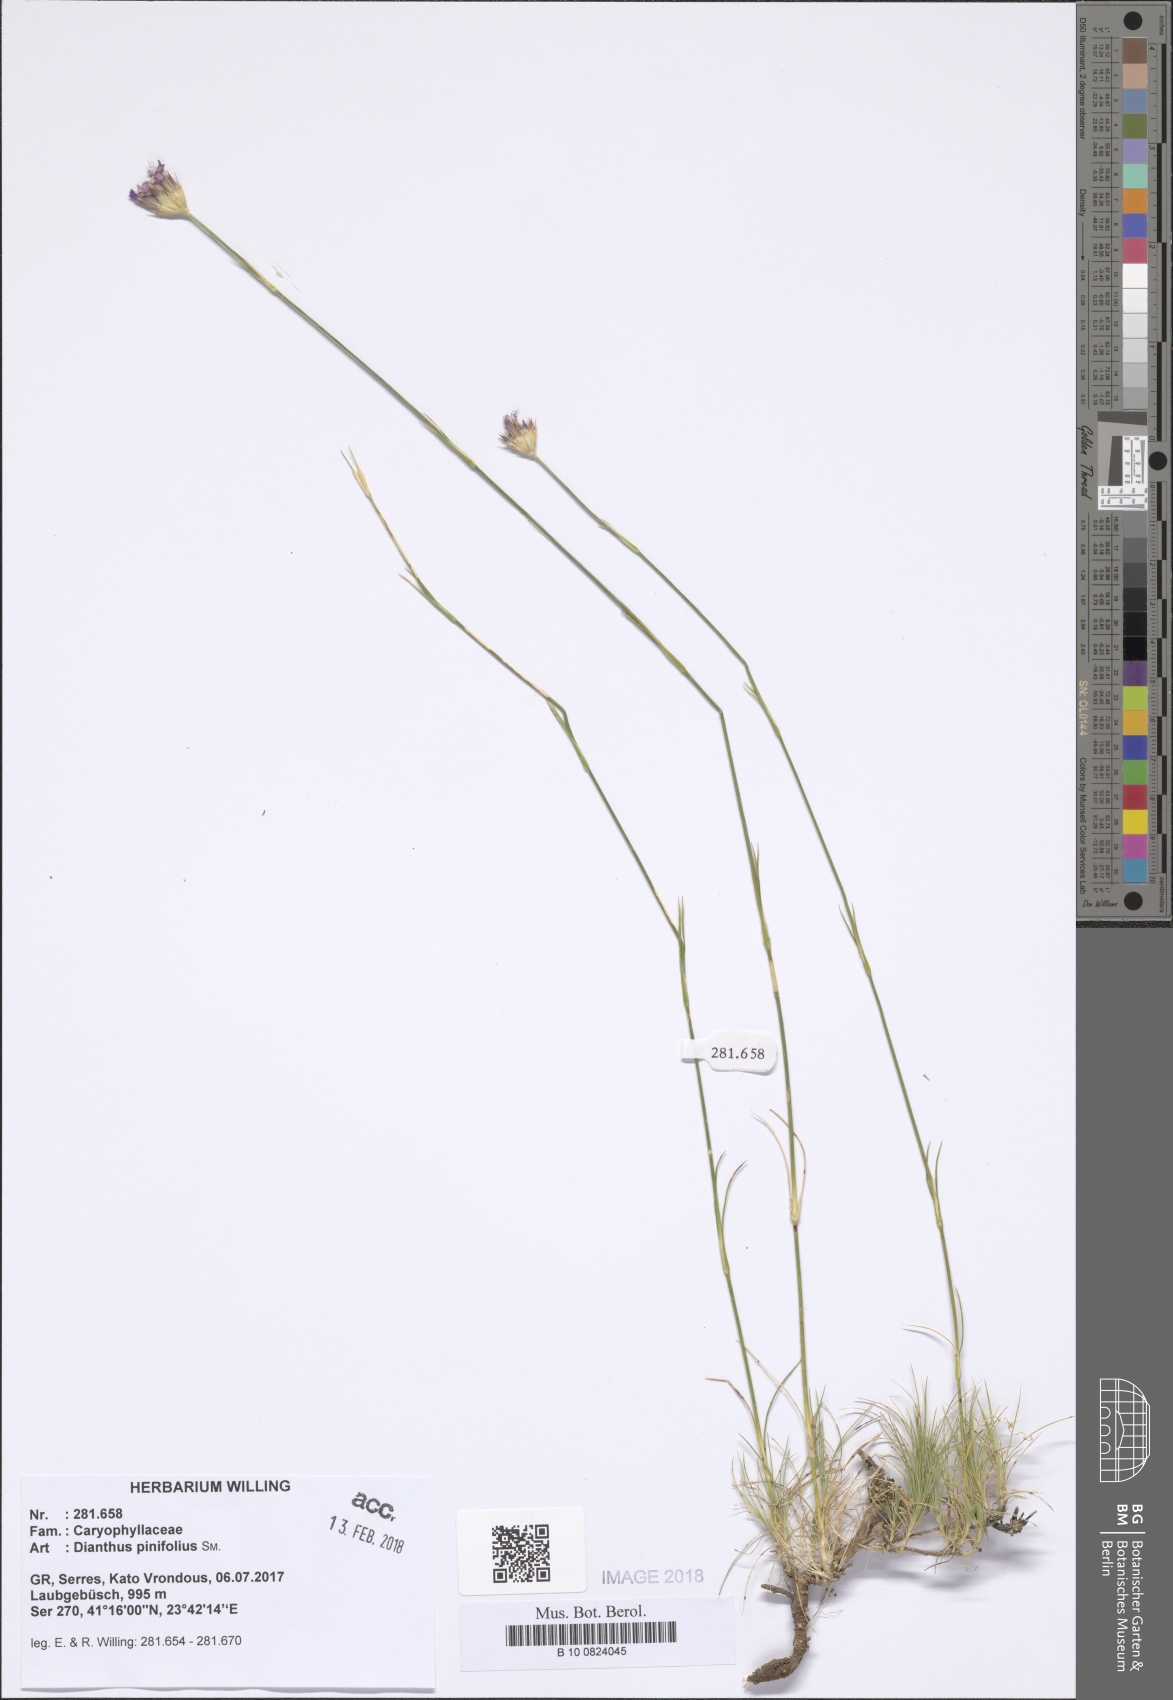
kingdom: Plantae
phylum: Tracheophyta
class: Magnoliopsida
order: Caryophyllales
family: Caryophyllaceae
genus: Dianthus
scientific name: Dianthus pinifolius
